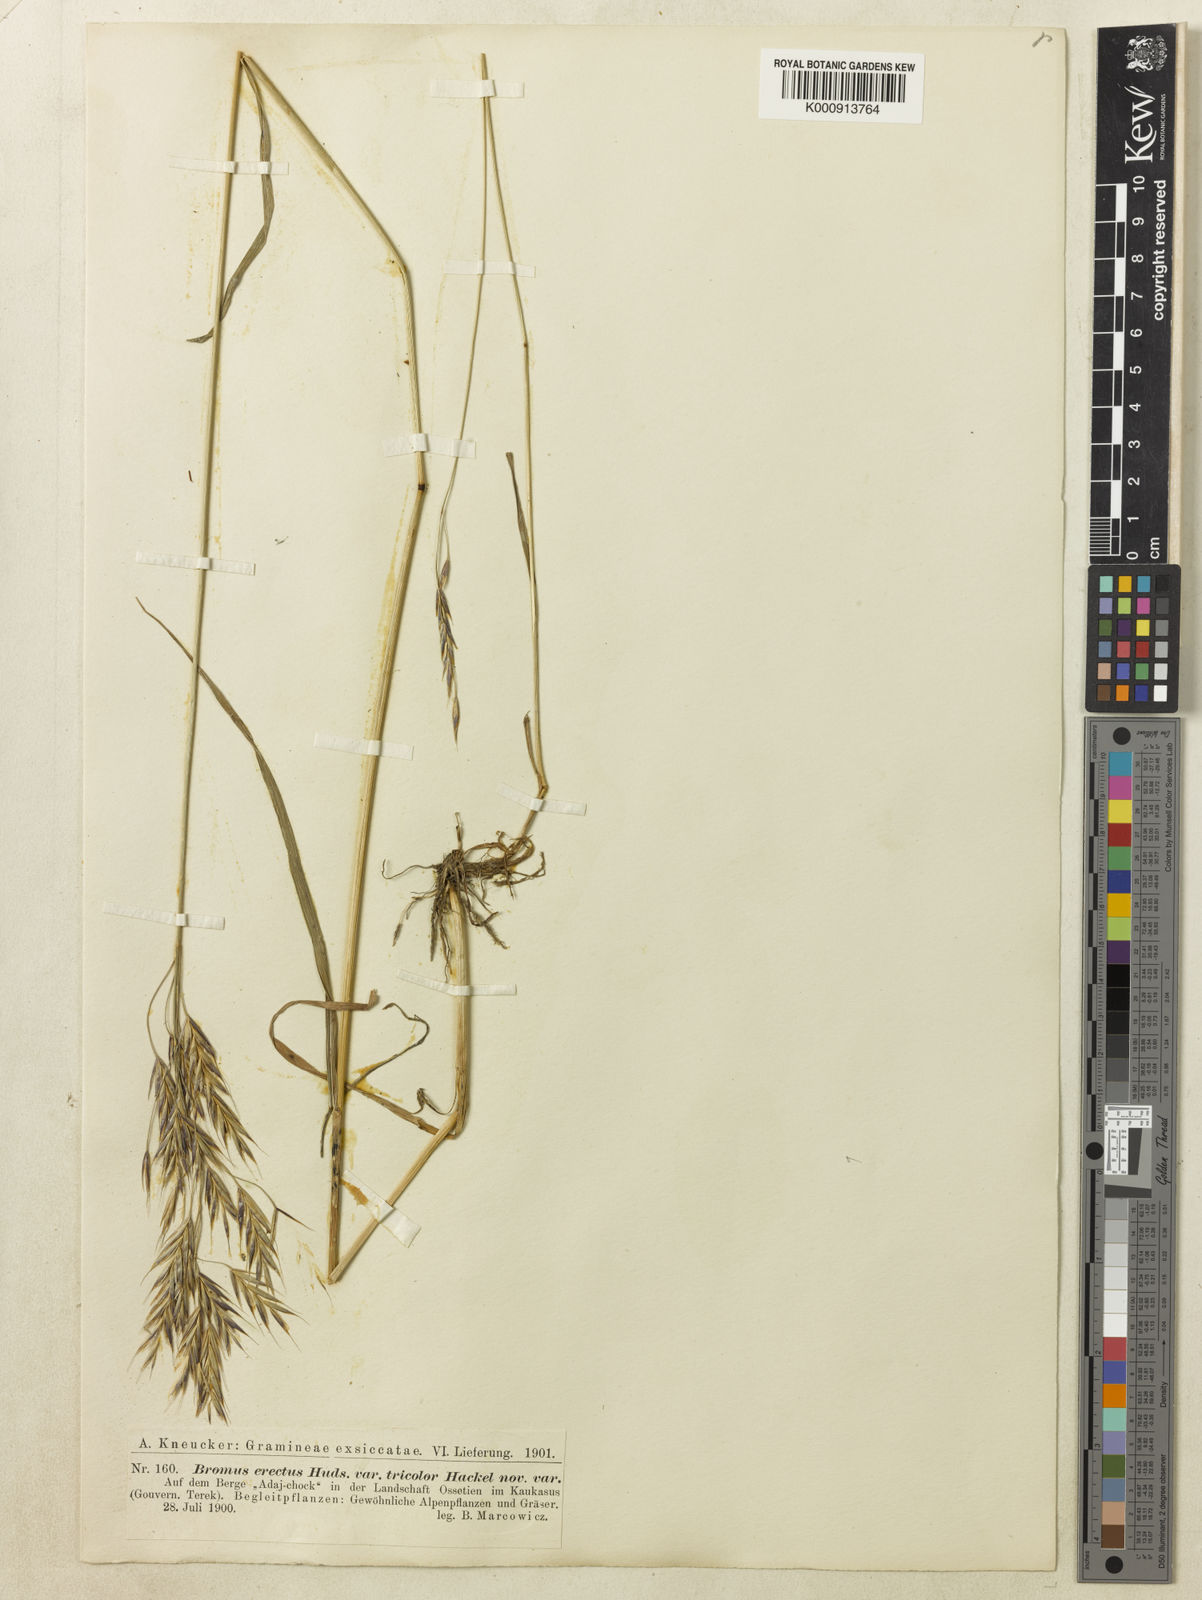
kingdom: Plantae
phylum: Tracheophyta
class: Liliopsida
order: Poales
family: Poaceae
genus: Bromus
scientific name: Bromus erectus
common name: Erect brome
